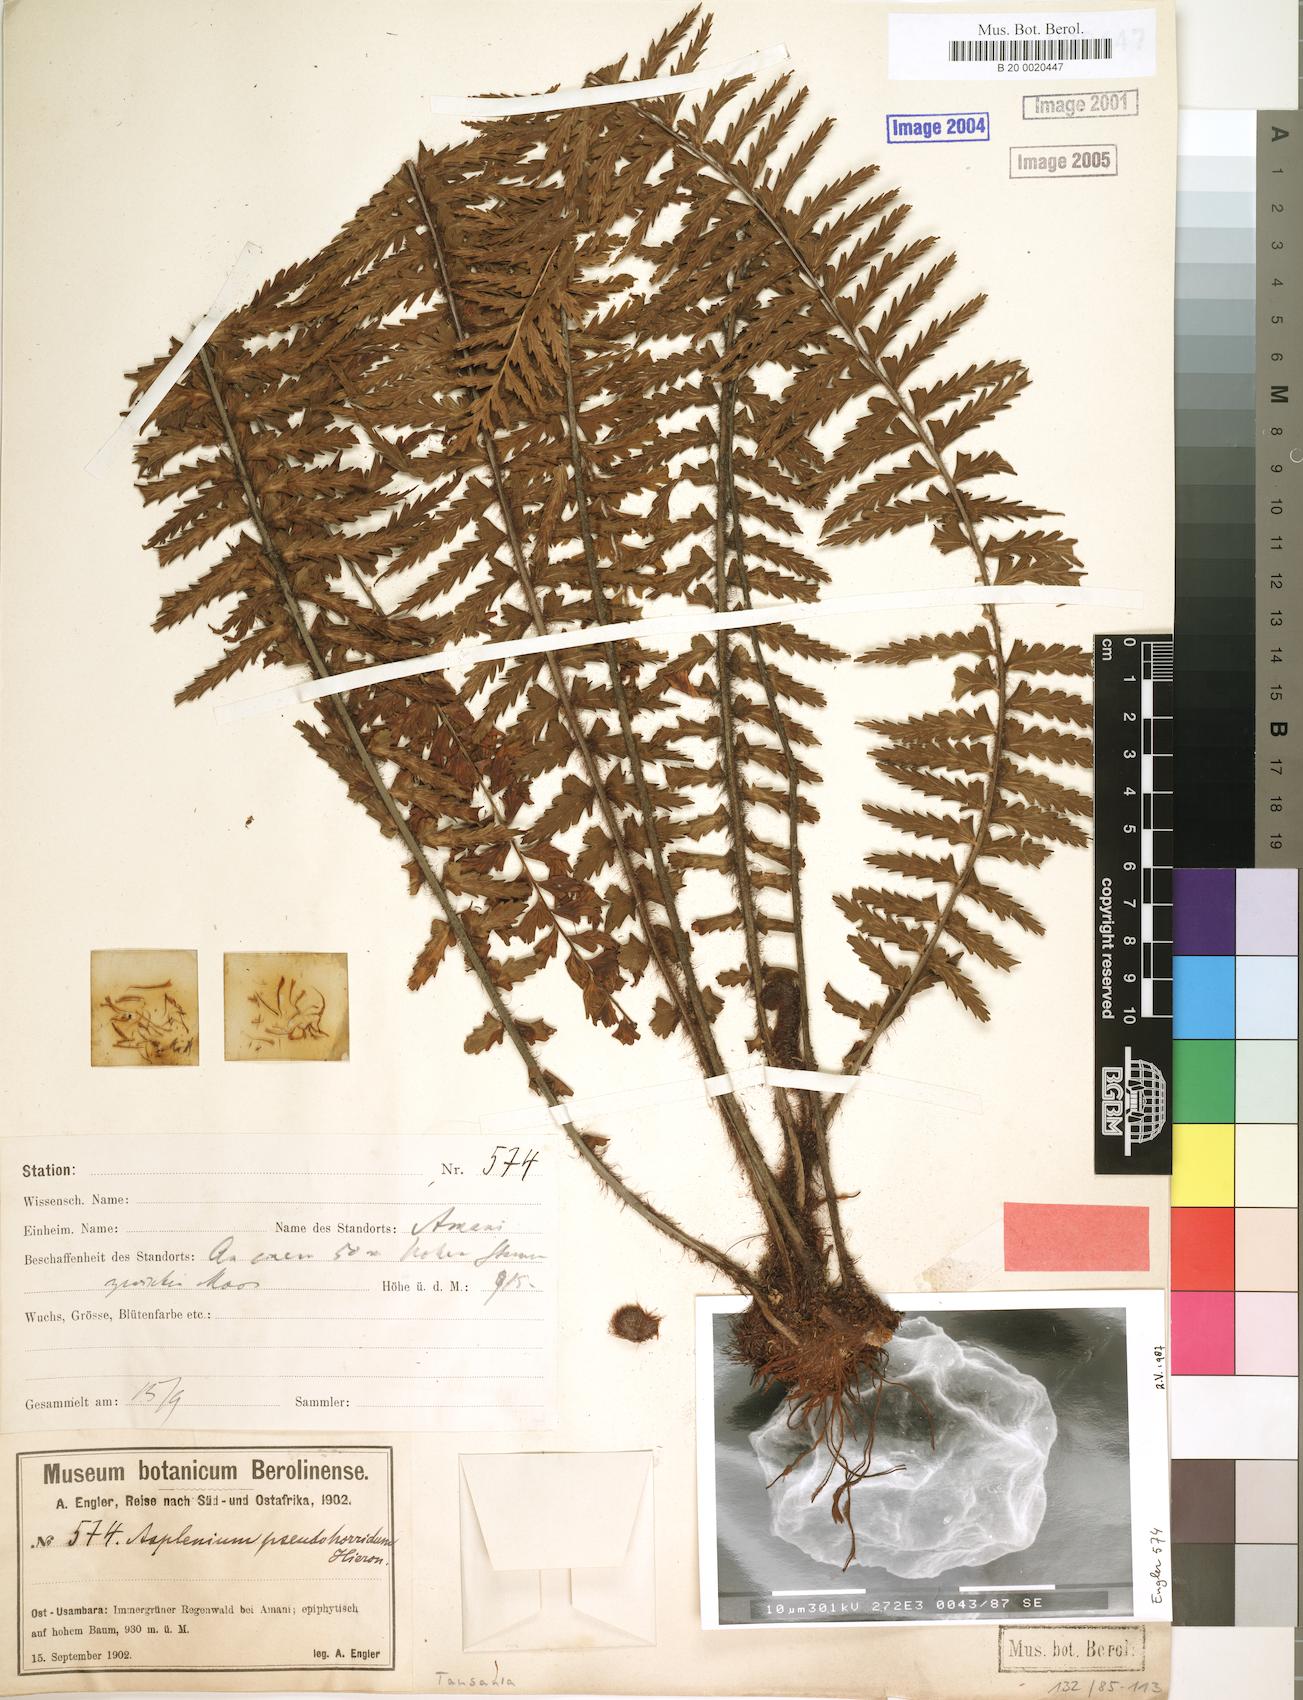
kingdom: Plantae
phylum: Tracheophyta
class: Polypodiopsida
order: Polypodiales
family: Aspleniaceae
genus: Asplenium
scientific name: Asplenium pellucidum
